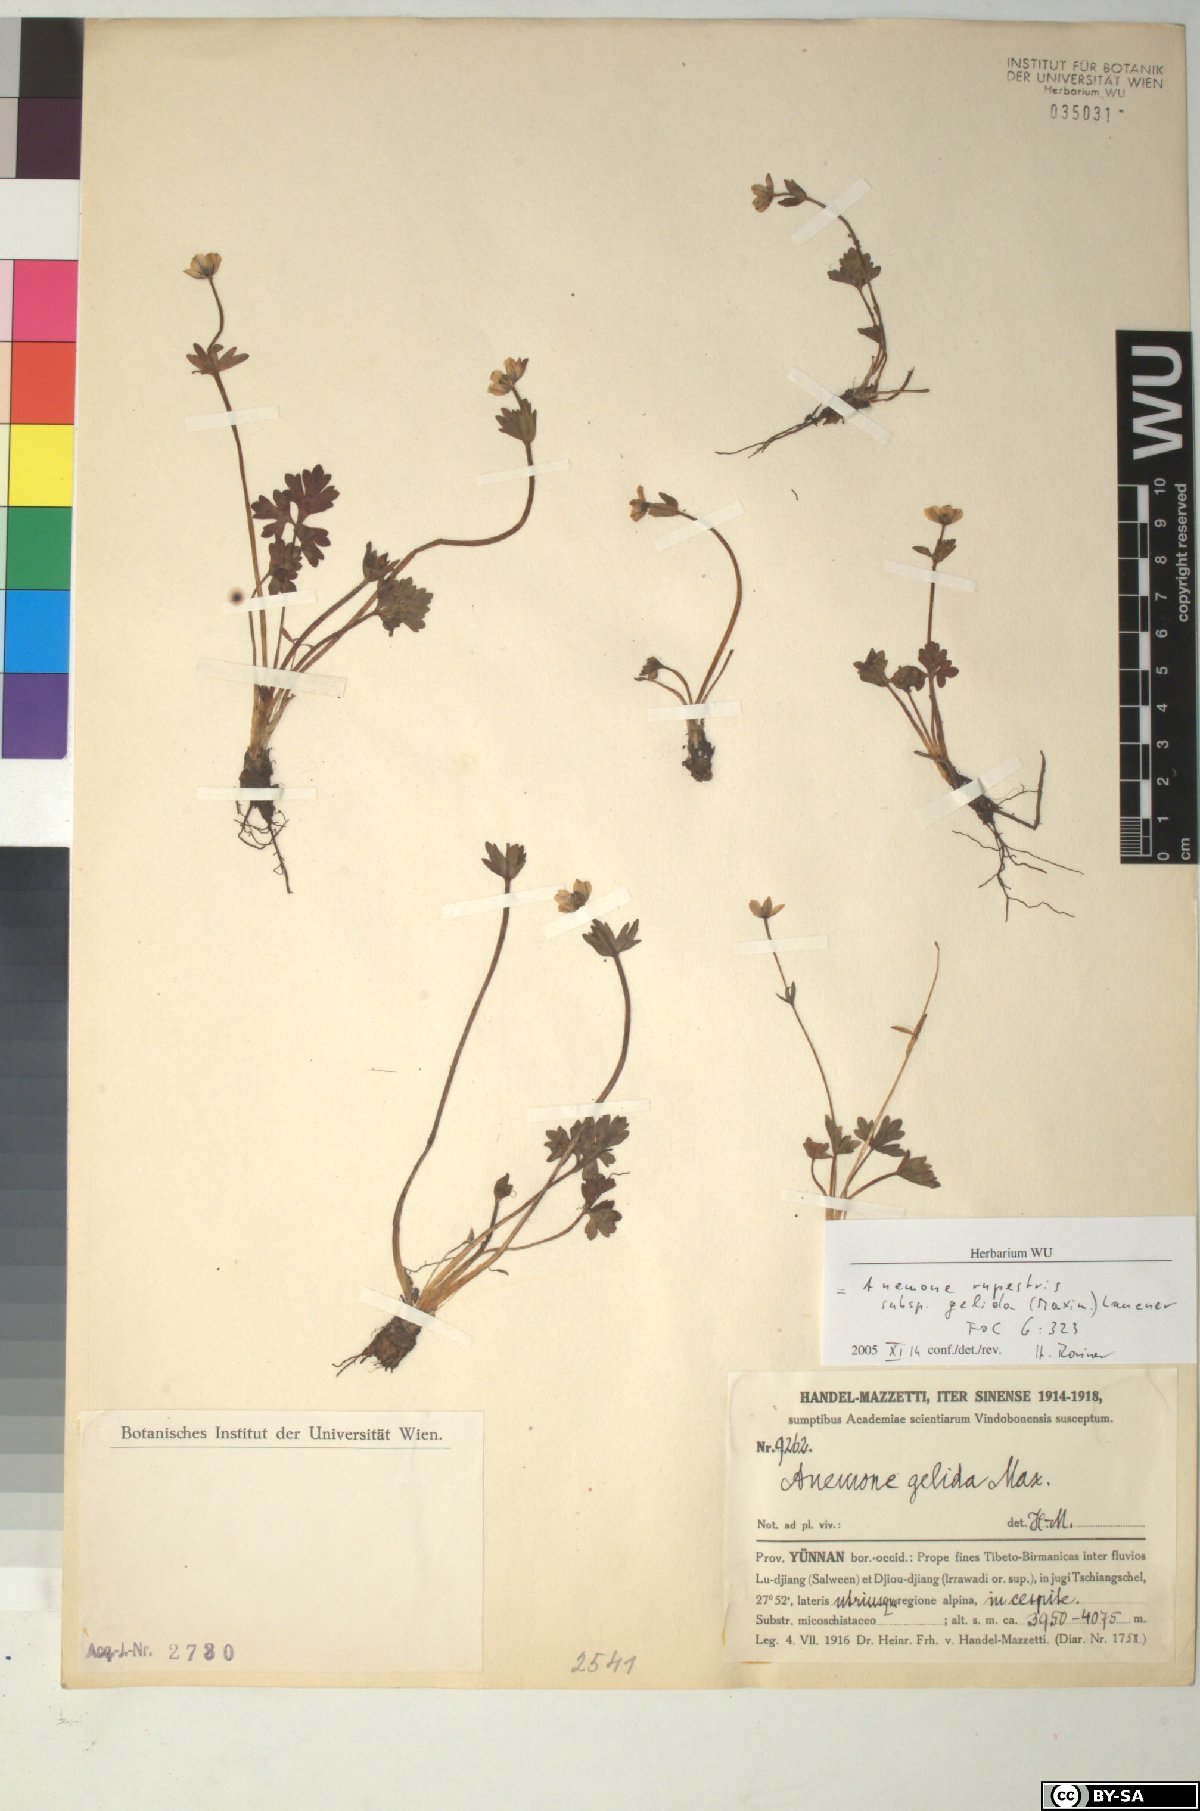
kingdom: Plantae
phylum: Tracheophyta
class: Magnoliopsida
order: Ranunculales
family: Ranunculaceae
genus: Anemonastrum
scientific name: Anemonastrum rupestre
